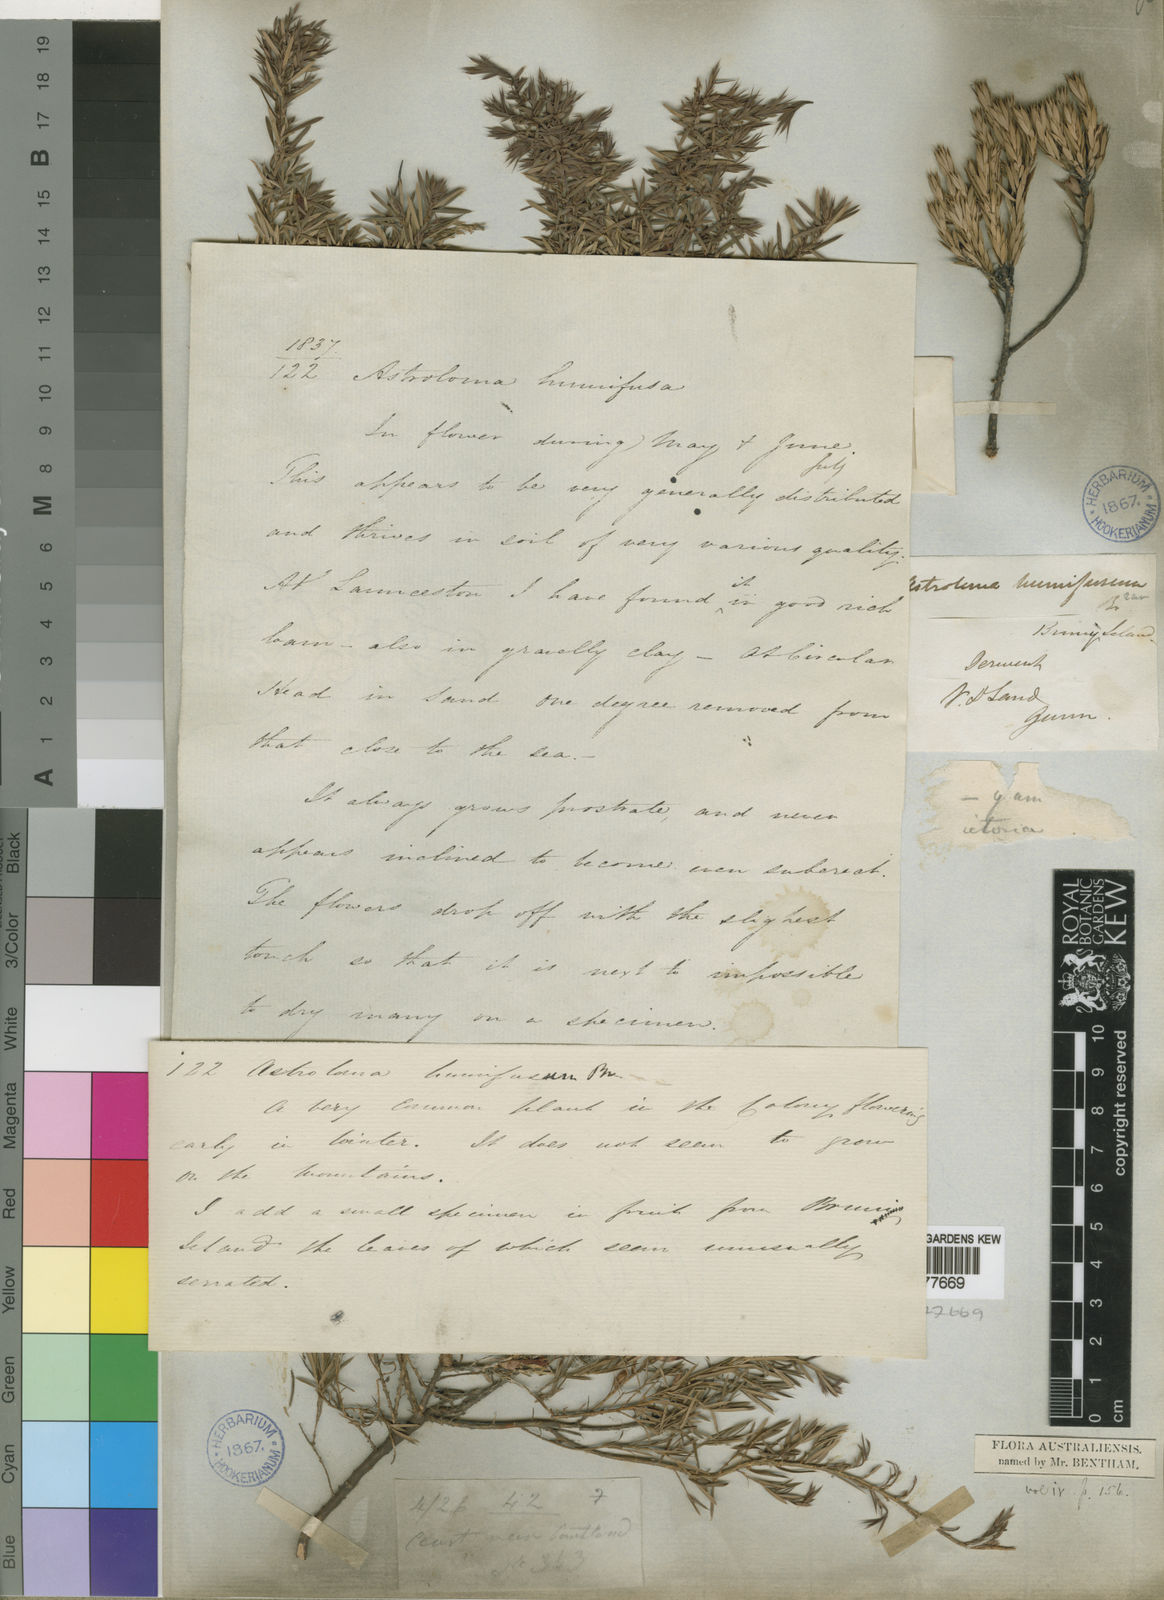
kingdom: Plantae
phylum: Tracheophyta
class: Magnoliopsida
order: Ericales
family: Ericaceae
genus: Styphelia
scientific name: Styphelia humifusa
